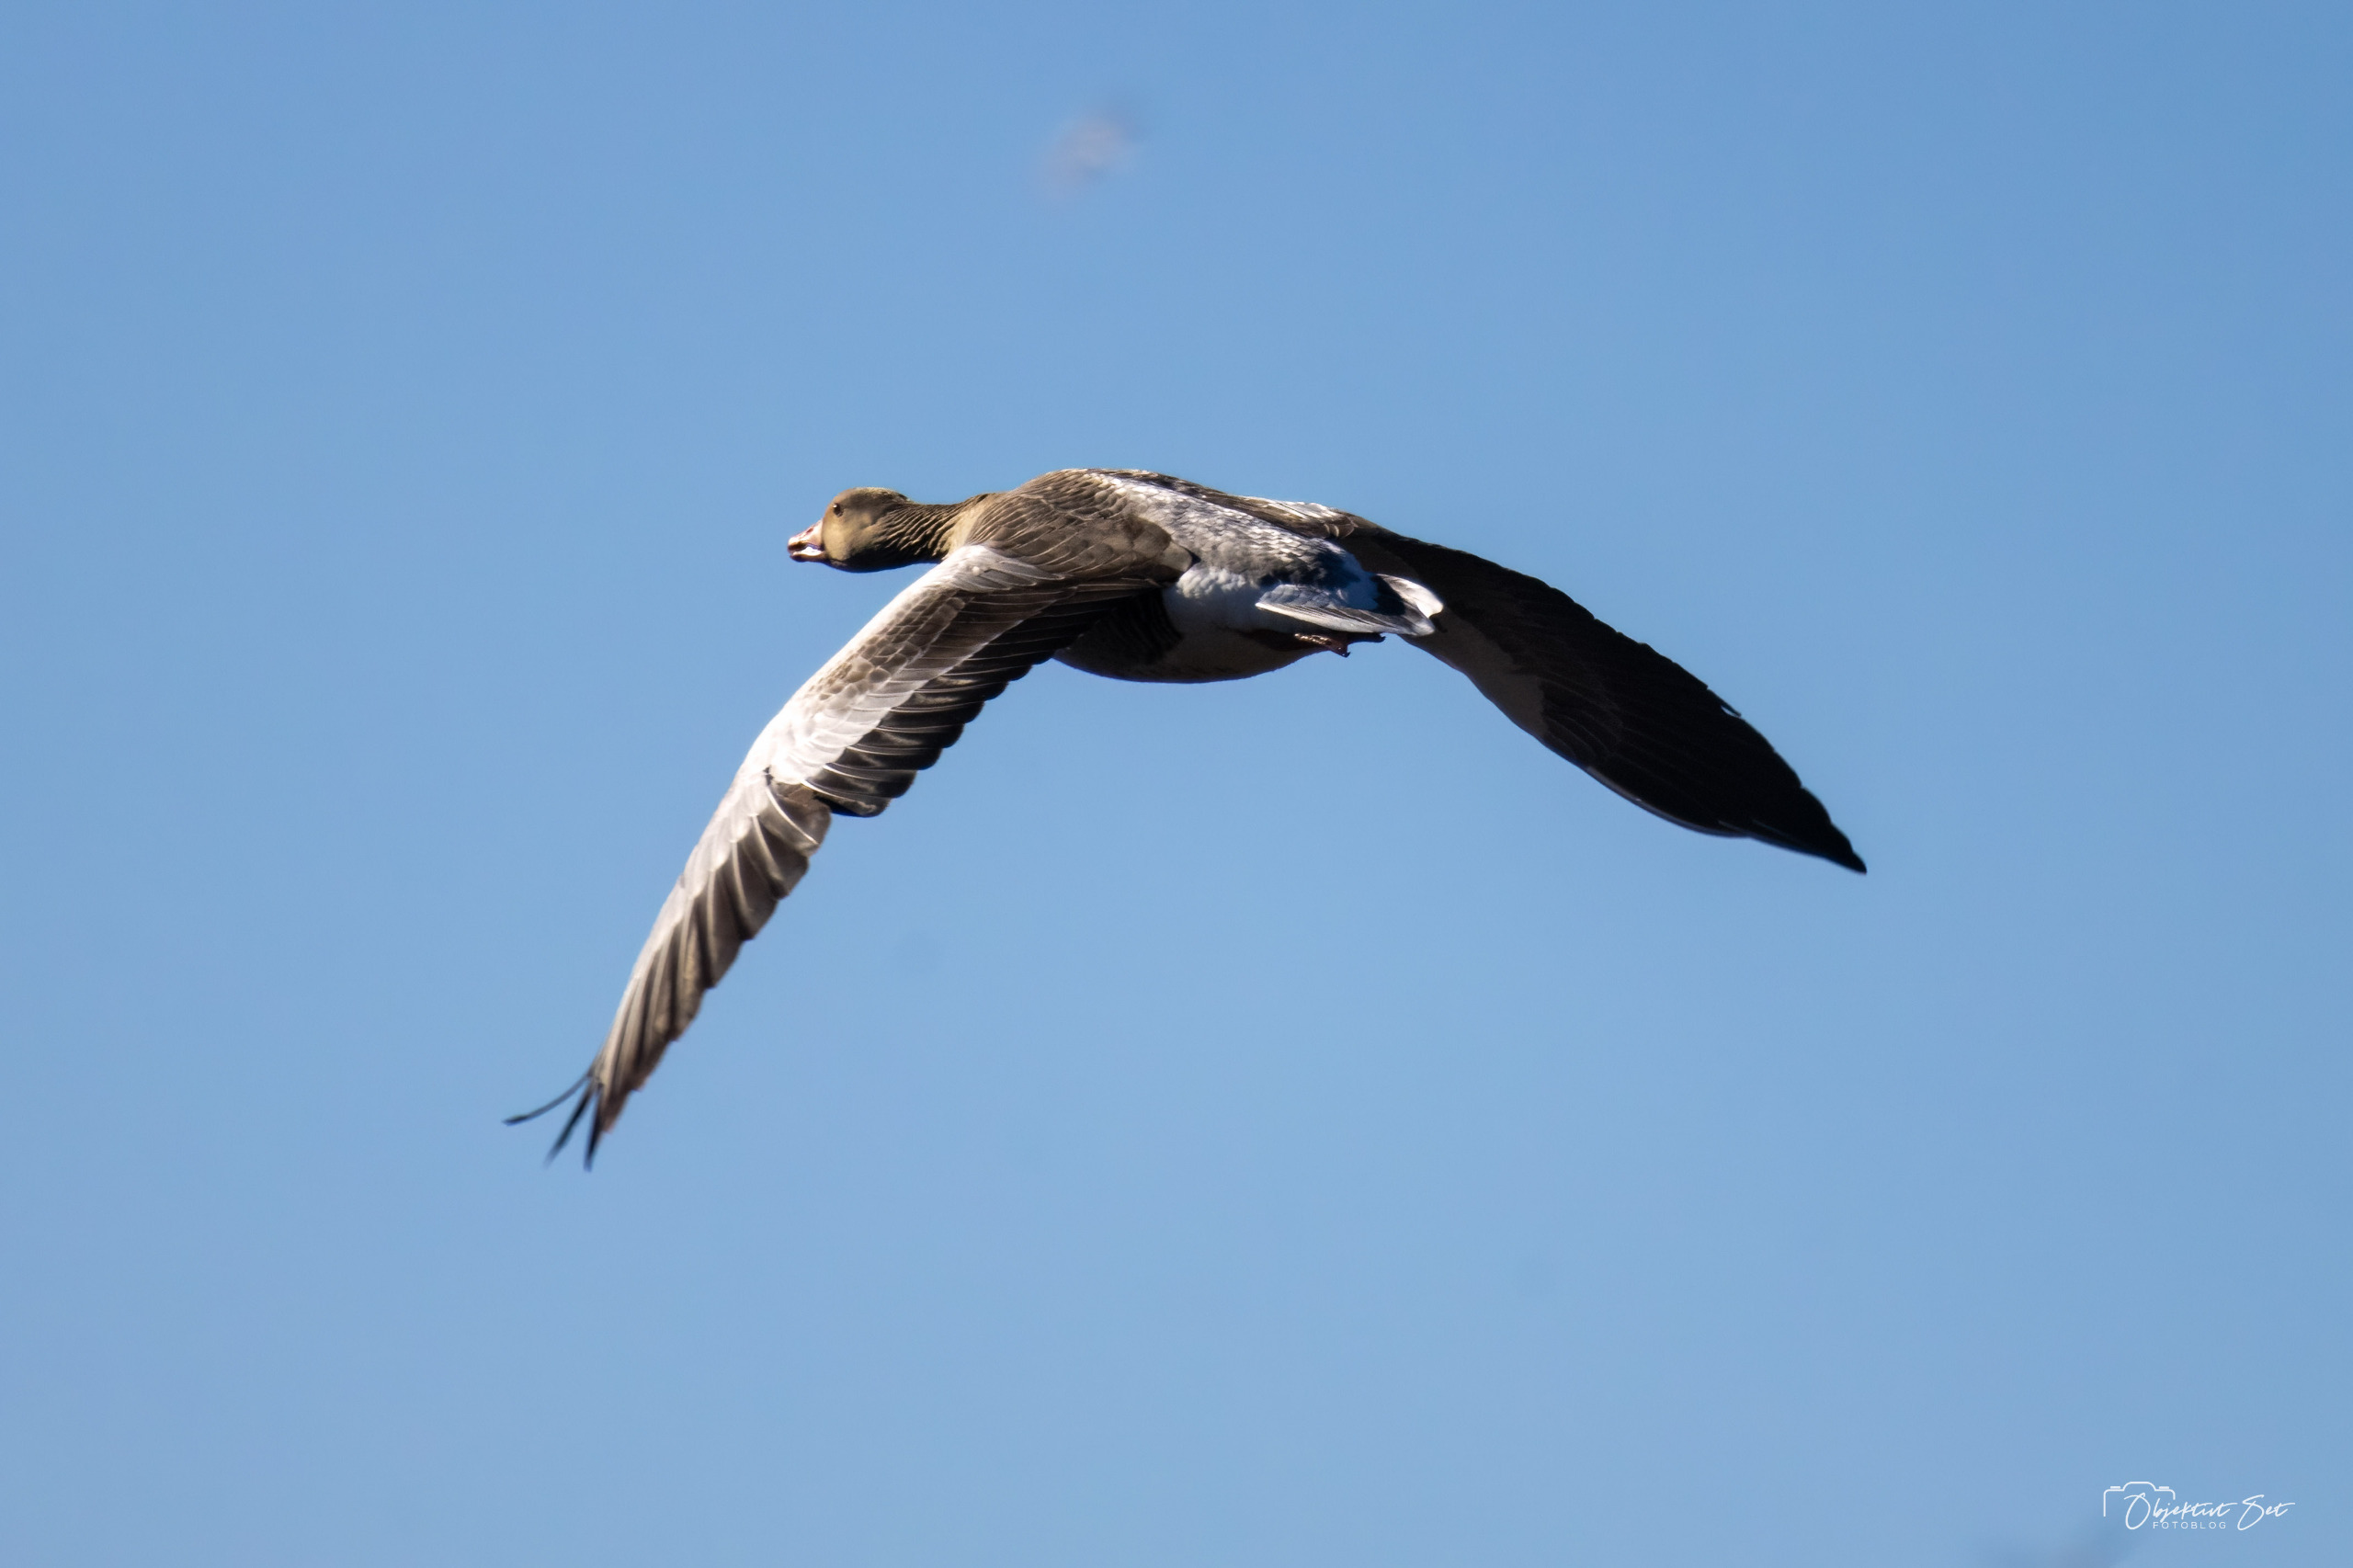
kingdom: Animalia
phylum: Chordata
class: Aves
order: Anseriformes
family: Anatidae
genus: Anser
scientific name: Anser anser
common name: Grågås
